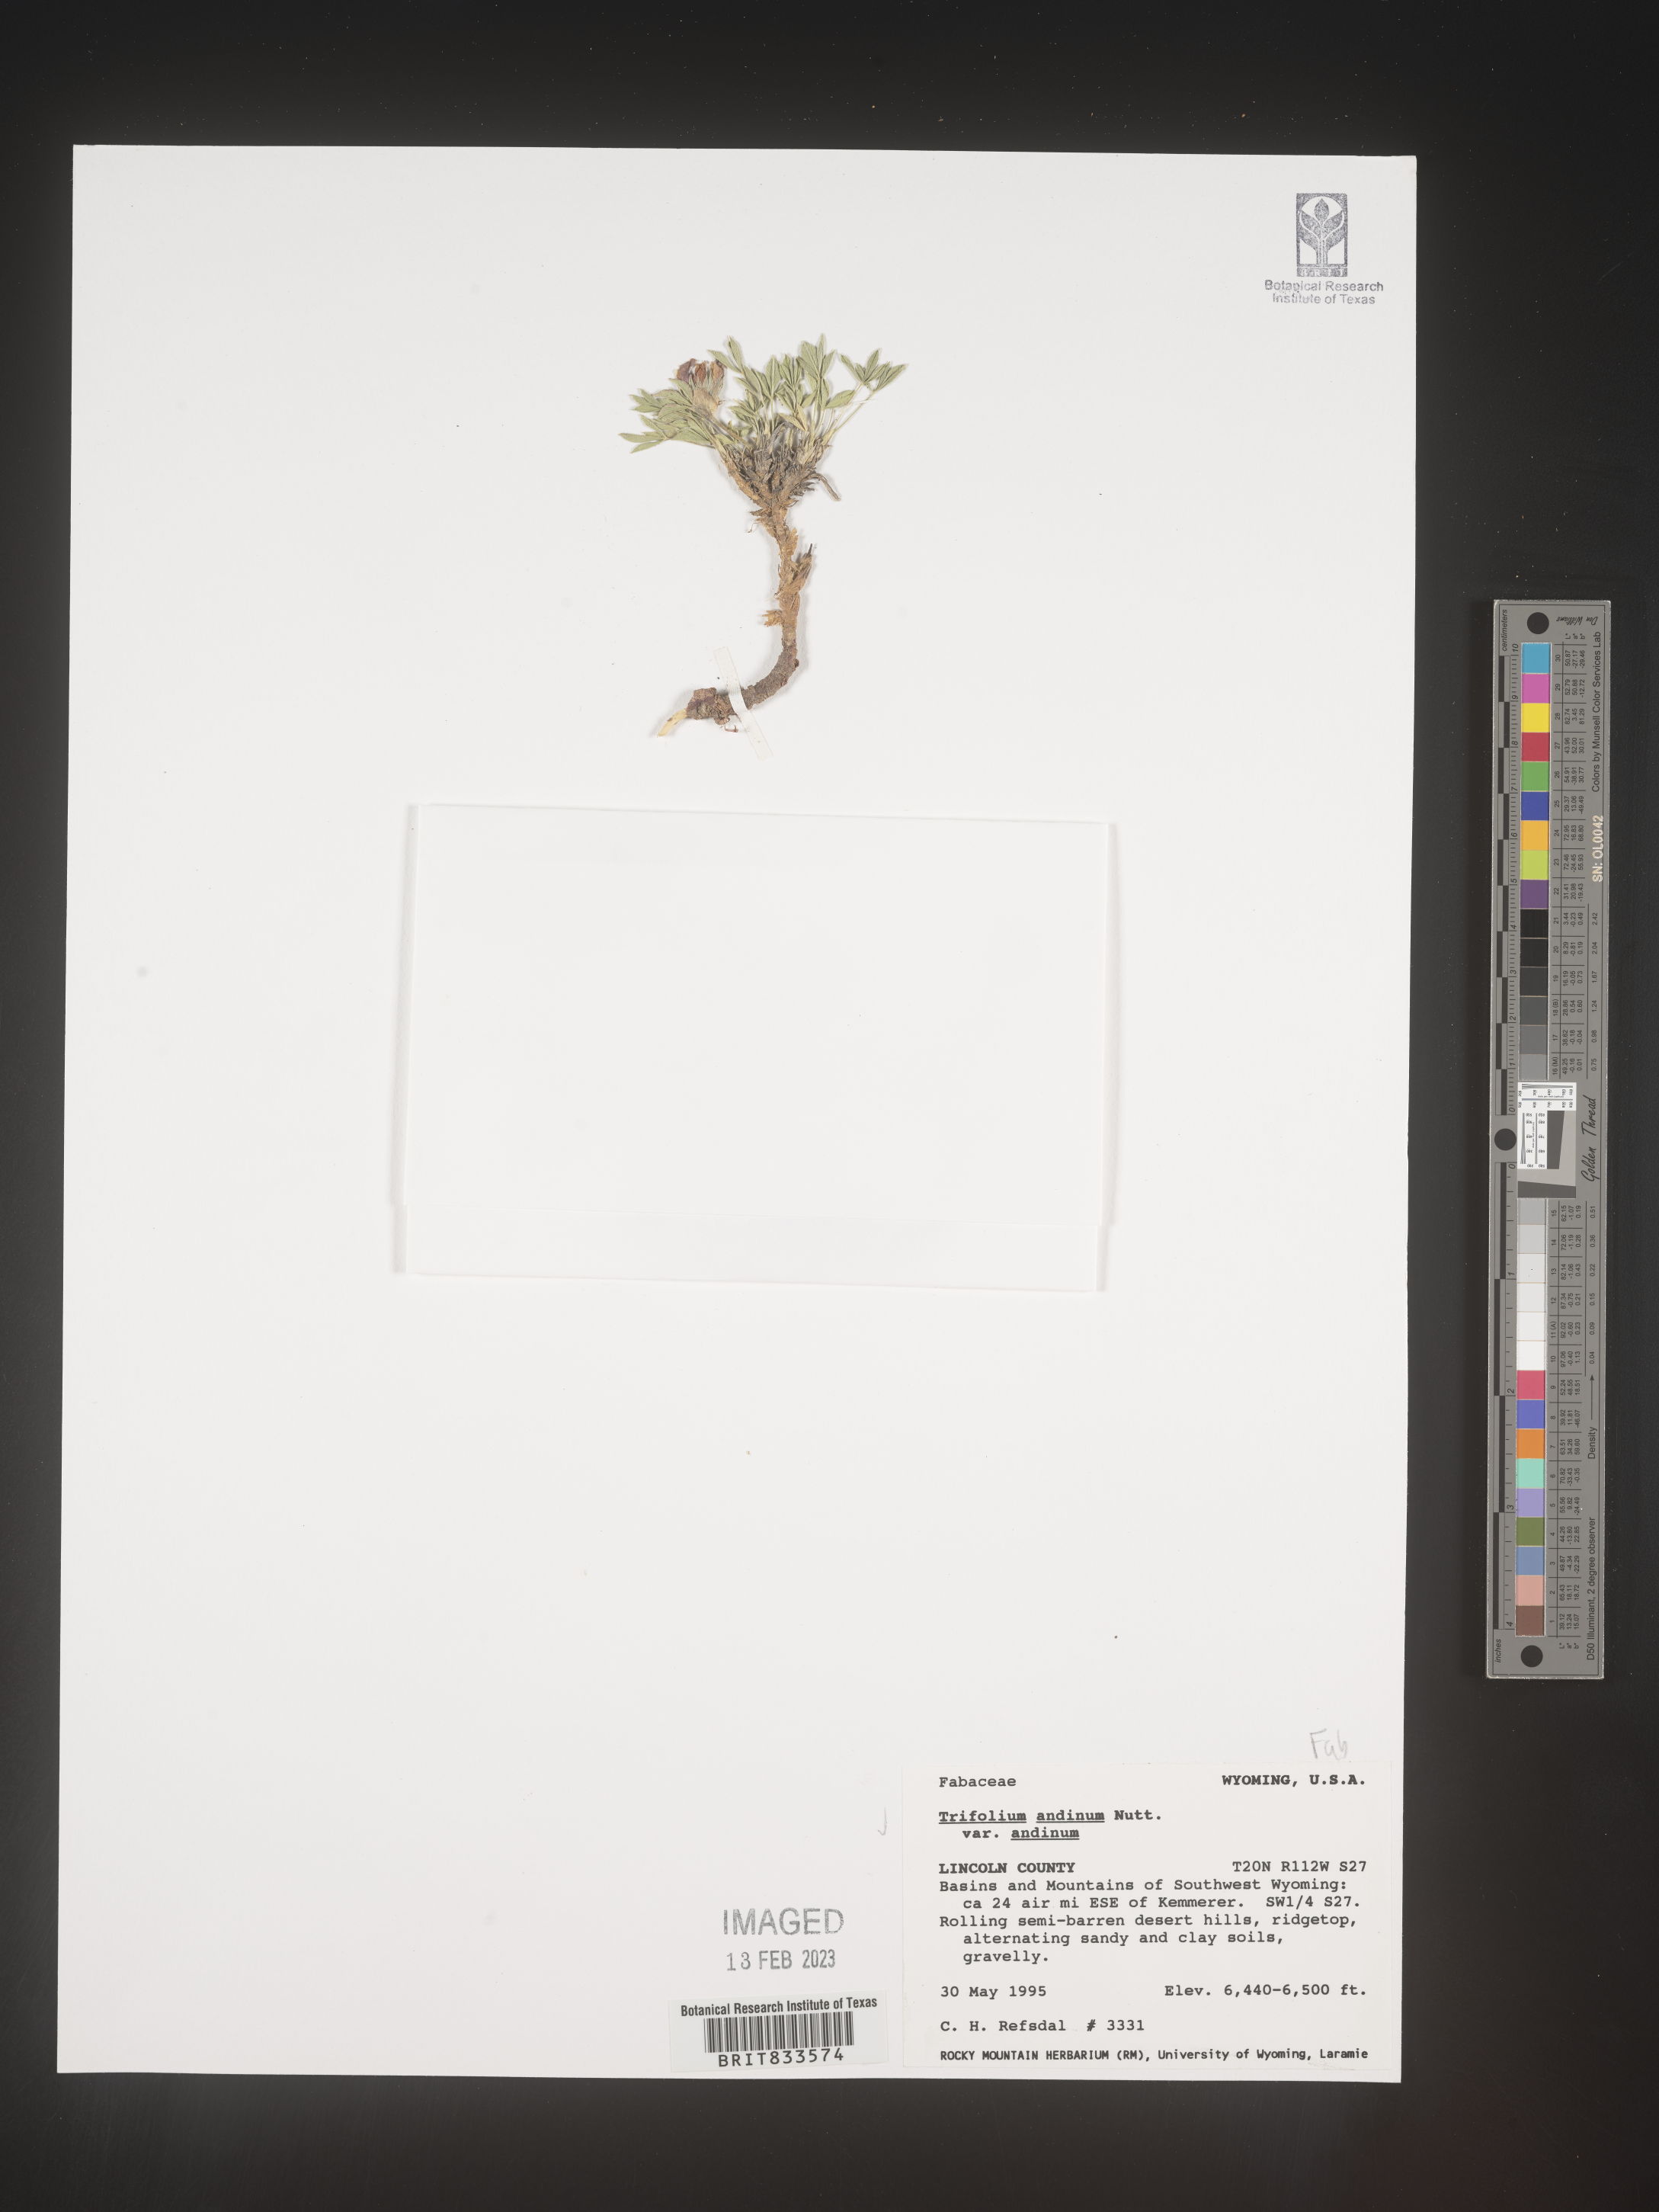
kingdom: Plantae
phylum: Tracheophyta
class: Magnoliopsida
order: Fabales
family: Fabaceae
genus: Trifolium
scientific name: Trifolium
